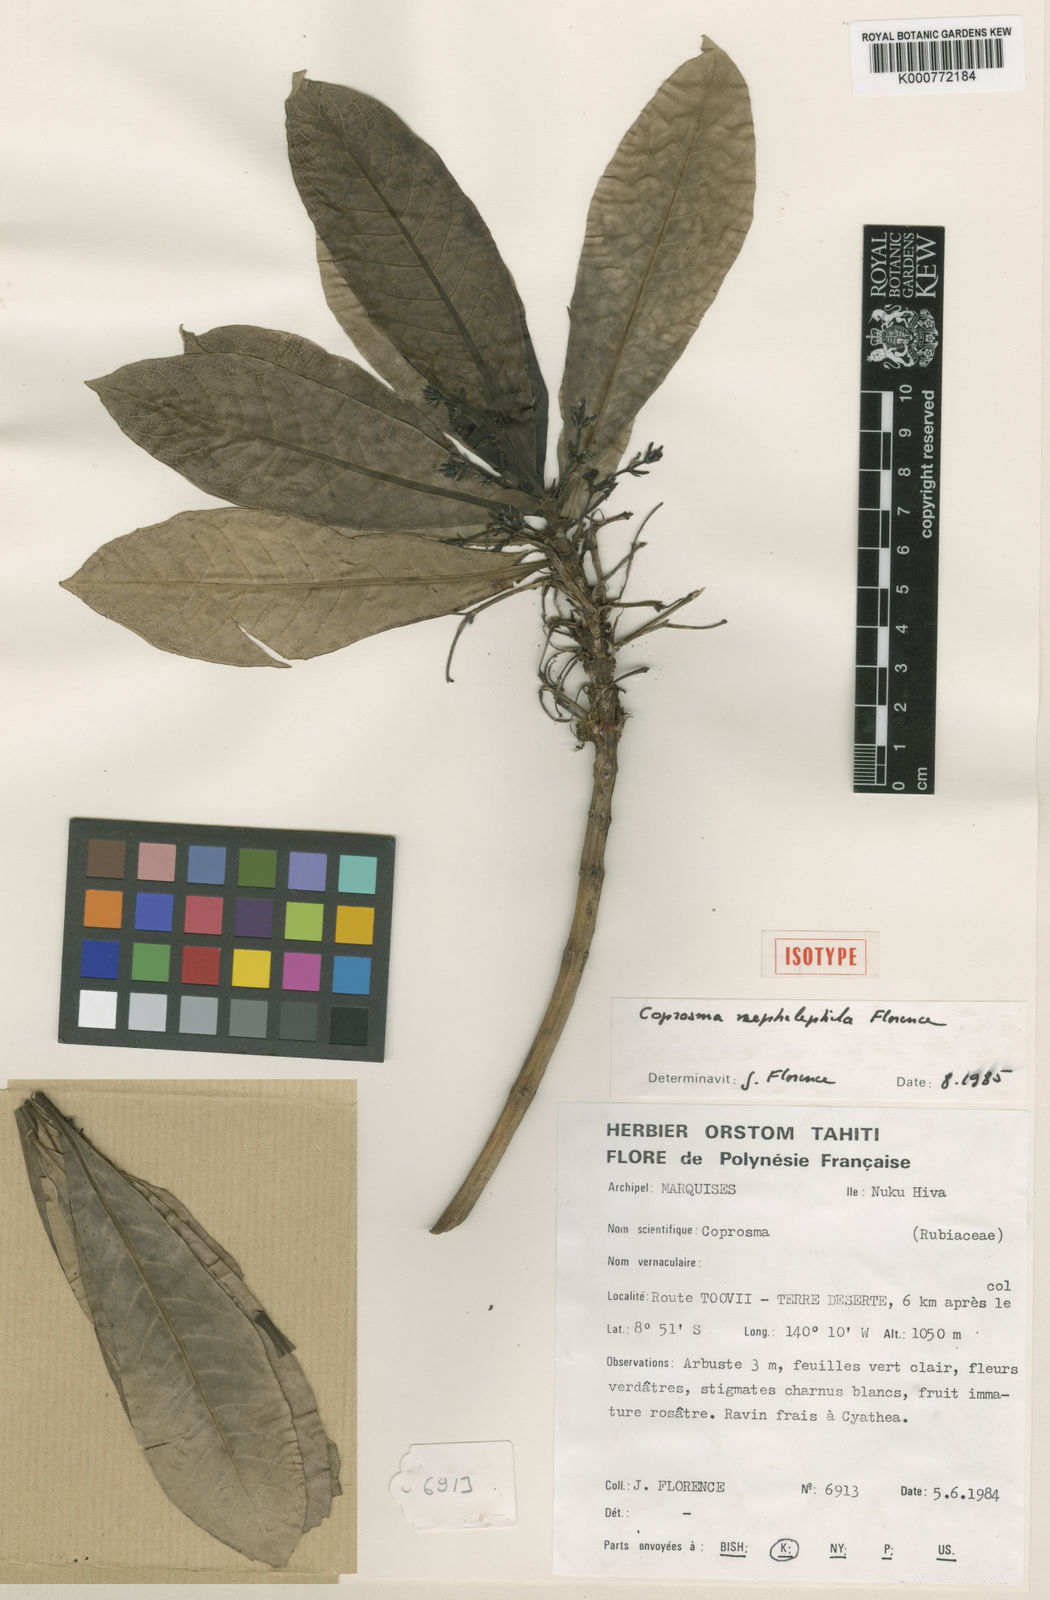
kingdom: Plantae
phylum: Tracheophyta
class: Magnoliopsida
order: Gentianales
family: Rubiaceae
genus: Coprosma
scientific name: Coprosma nephelephila
